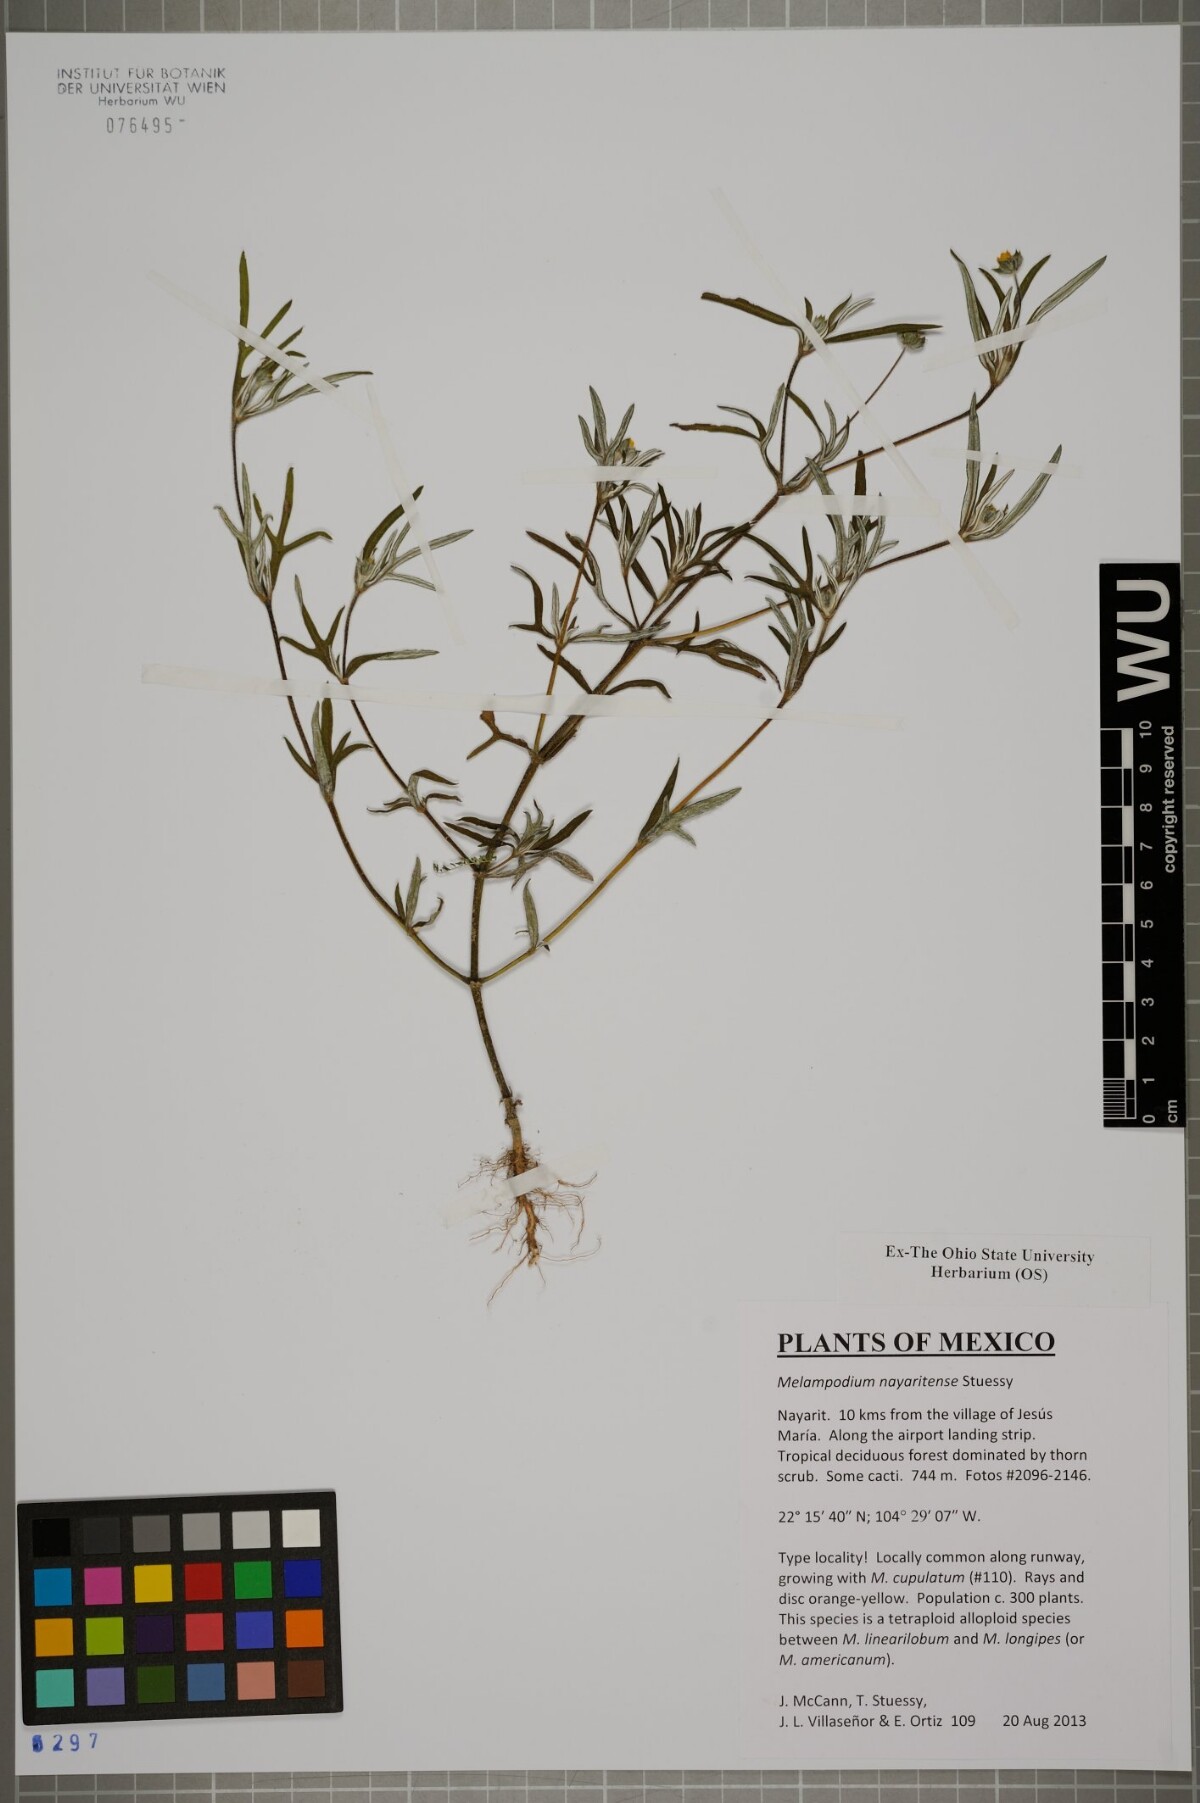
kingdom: Plantae
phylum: Tracheophyta
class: Magnoliopsida
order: Asterales
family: Asteraceae
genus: Melampodium
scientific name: Melampodium nayaritense
